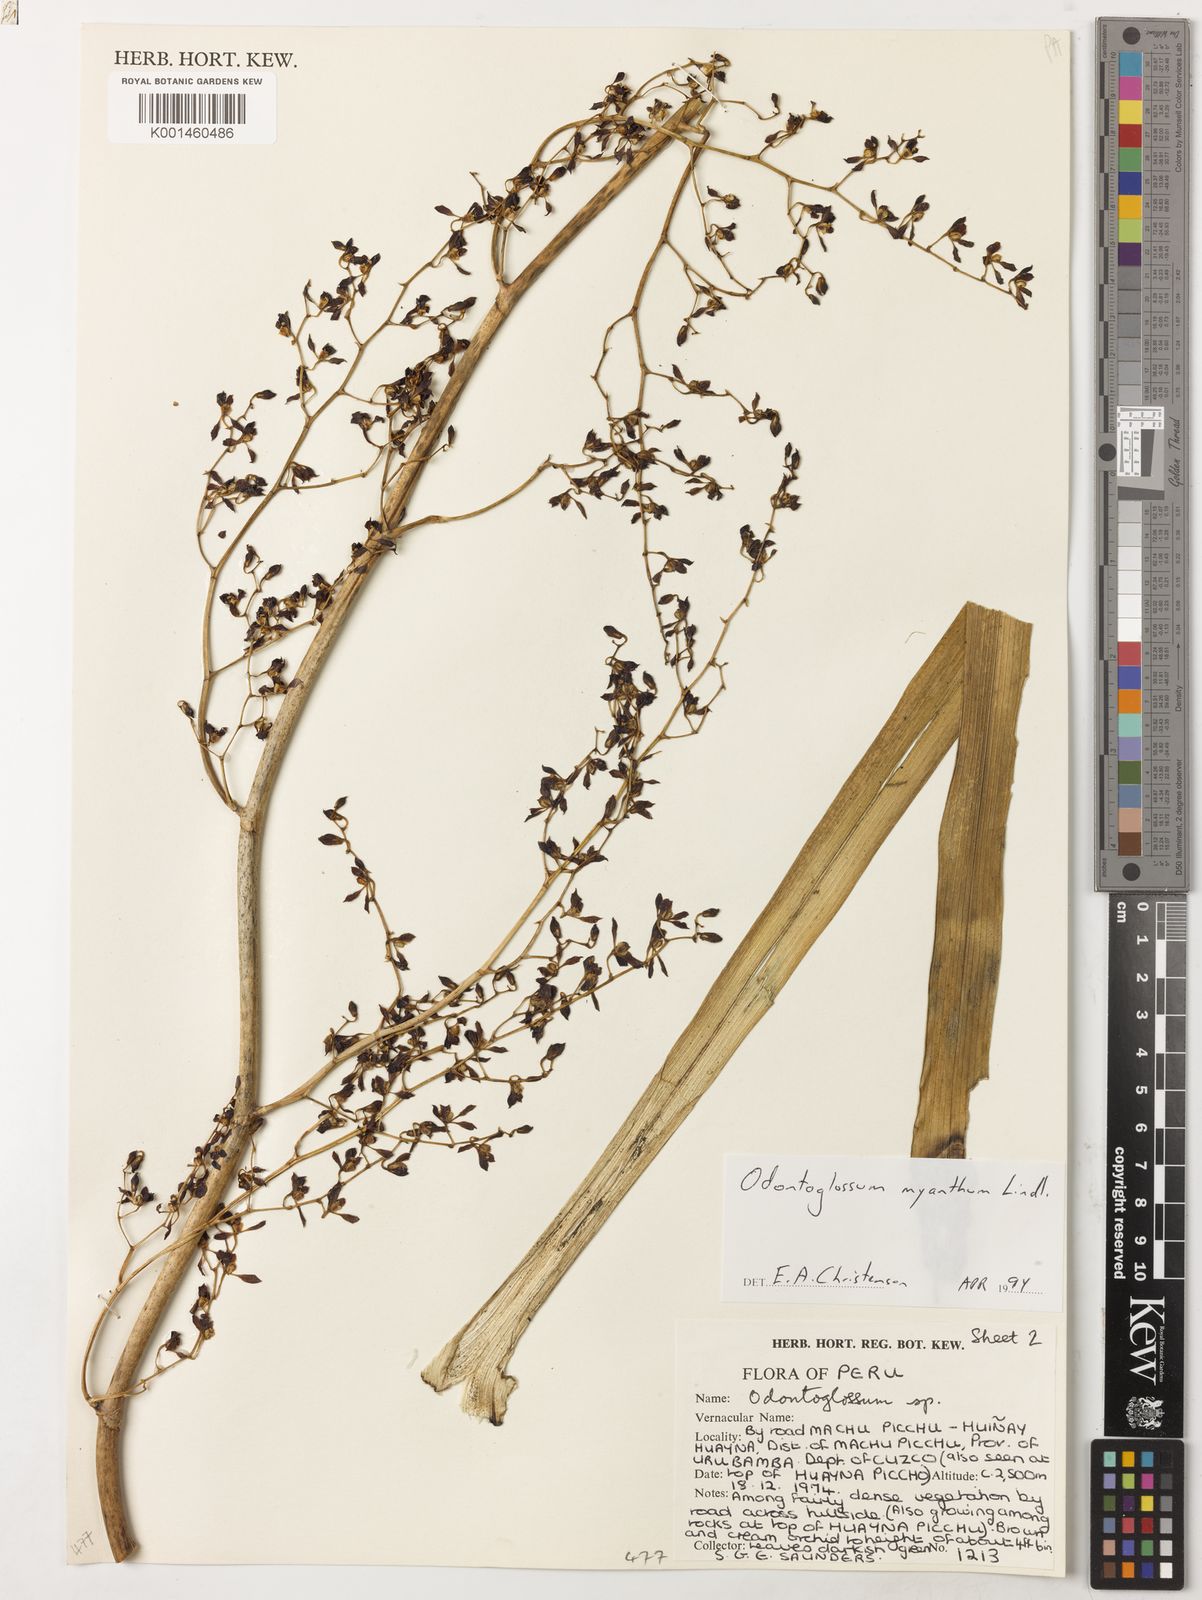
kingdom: Plantae
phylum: Tracheophyta
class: Liliopsida
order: Asparagales
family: Orchidaceae
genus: Cyrtochilum
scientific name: Cyrtochilum myanthum
